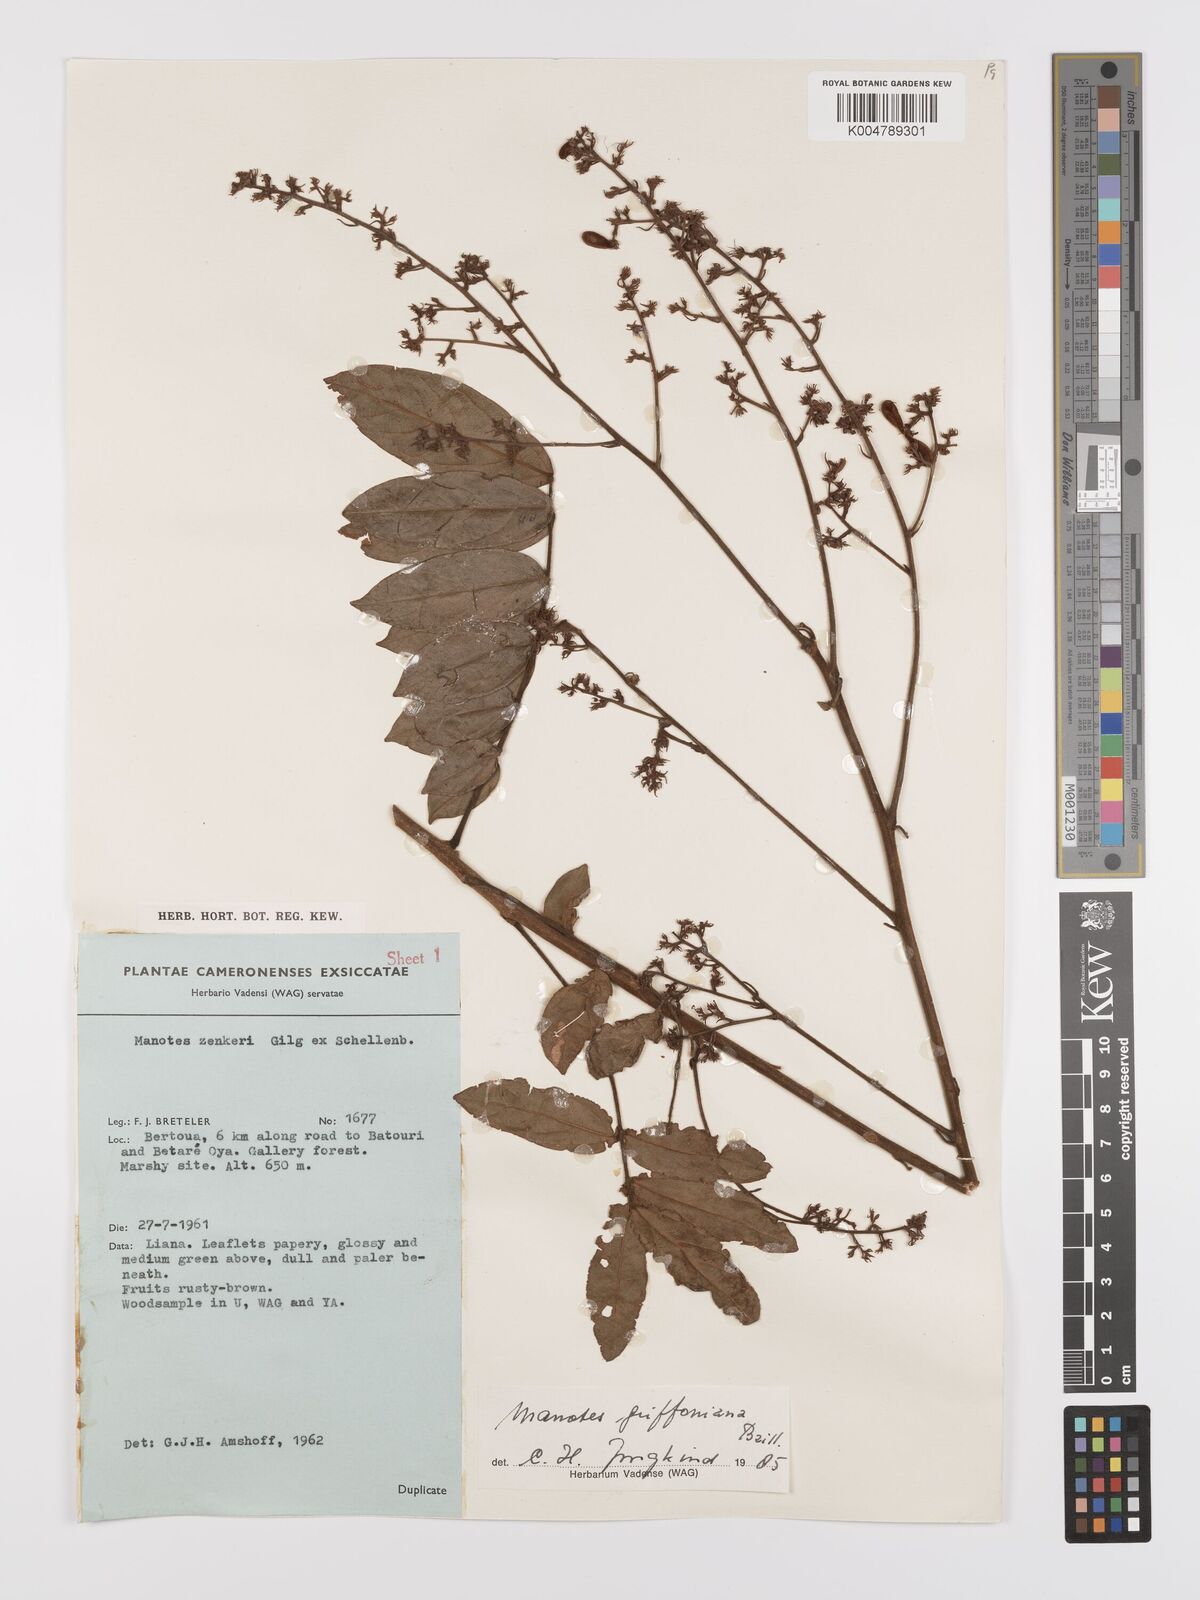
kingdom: Plantae
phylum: Tracheophyta
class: Magnoliopsida
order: Oxalidales
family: Connaraceae
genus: Manotes
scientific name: Manotes griffoniana
